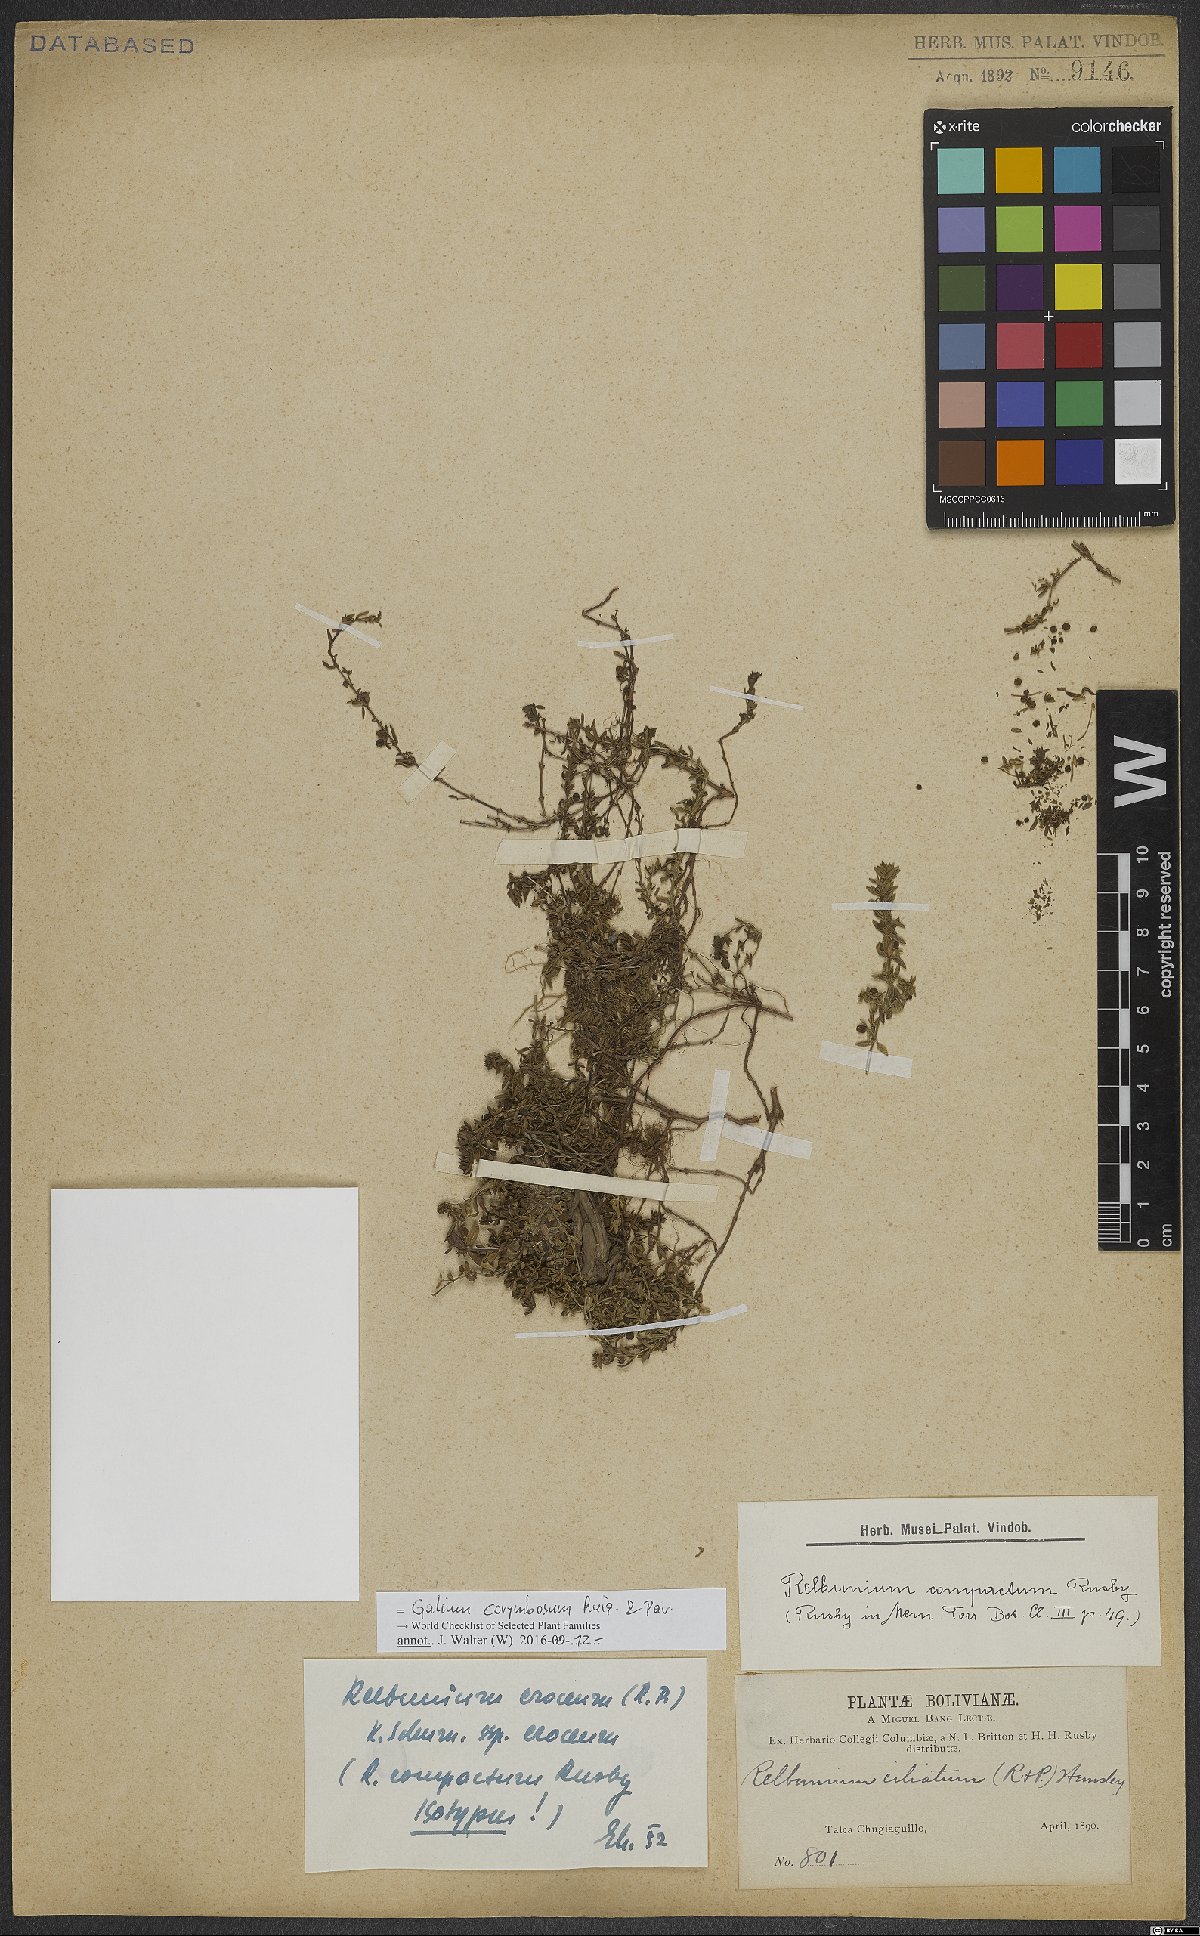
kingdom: Plantae
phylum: Tracheophyta
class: Magnoliopsida
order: Gentianales
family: Rubiaceae
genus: Galium
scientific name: Galium corymbosum
